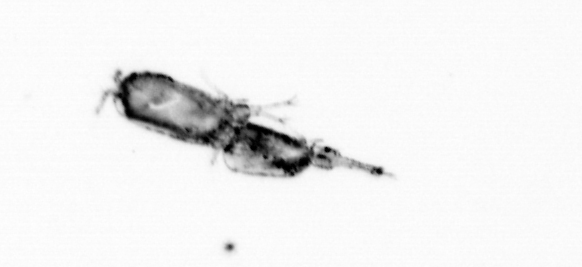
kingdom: Animalia
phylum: Arthropoda
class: Copepoda
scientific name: Copepoda
